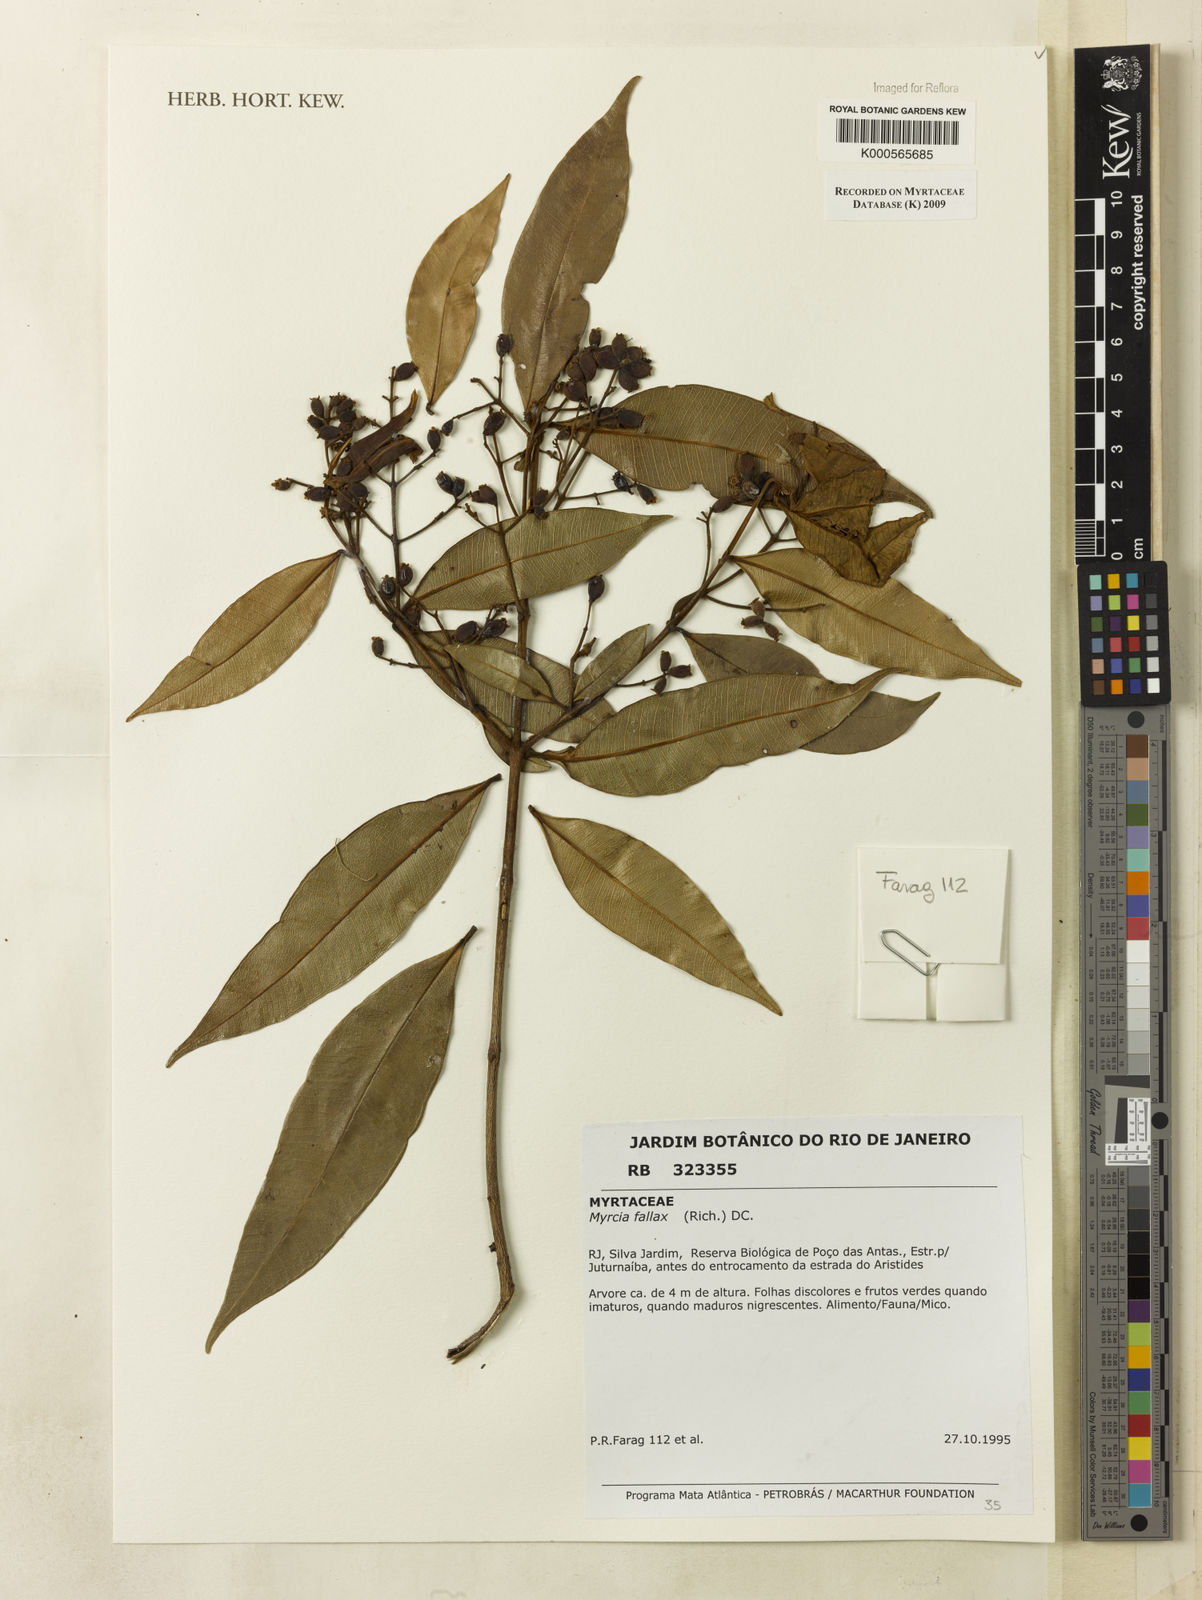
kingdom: Plantae
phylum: Tracheophyta
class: Magnoliopsida
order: Myrtales
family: Myrtaceae
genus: Myrcia
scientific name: Myrcia splendens
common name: Surinam cherry
